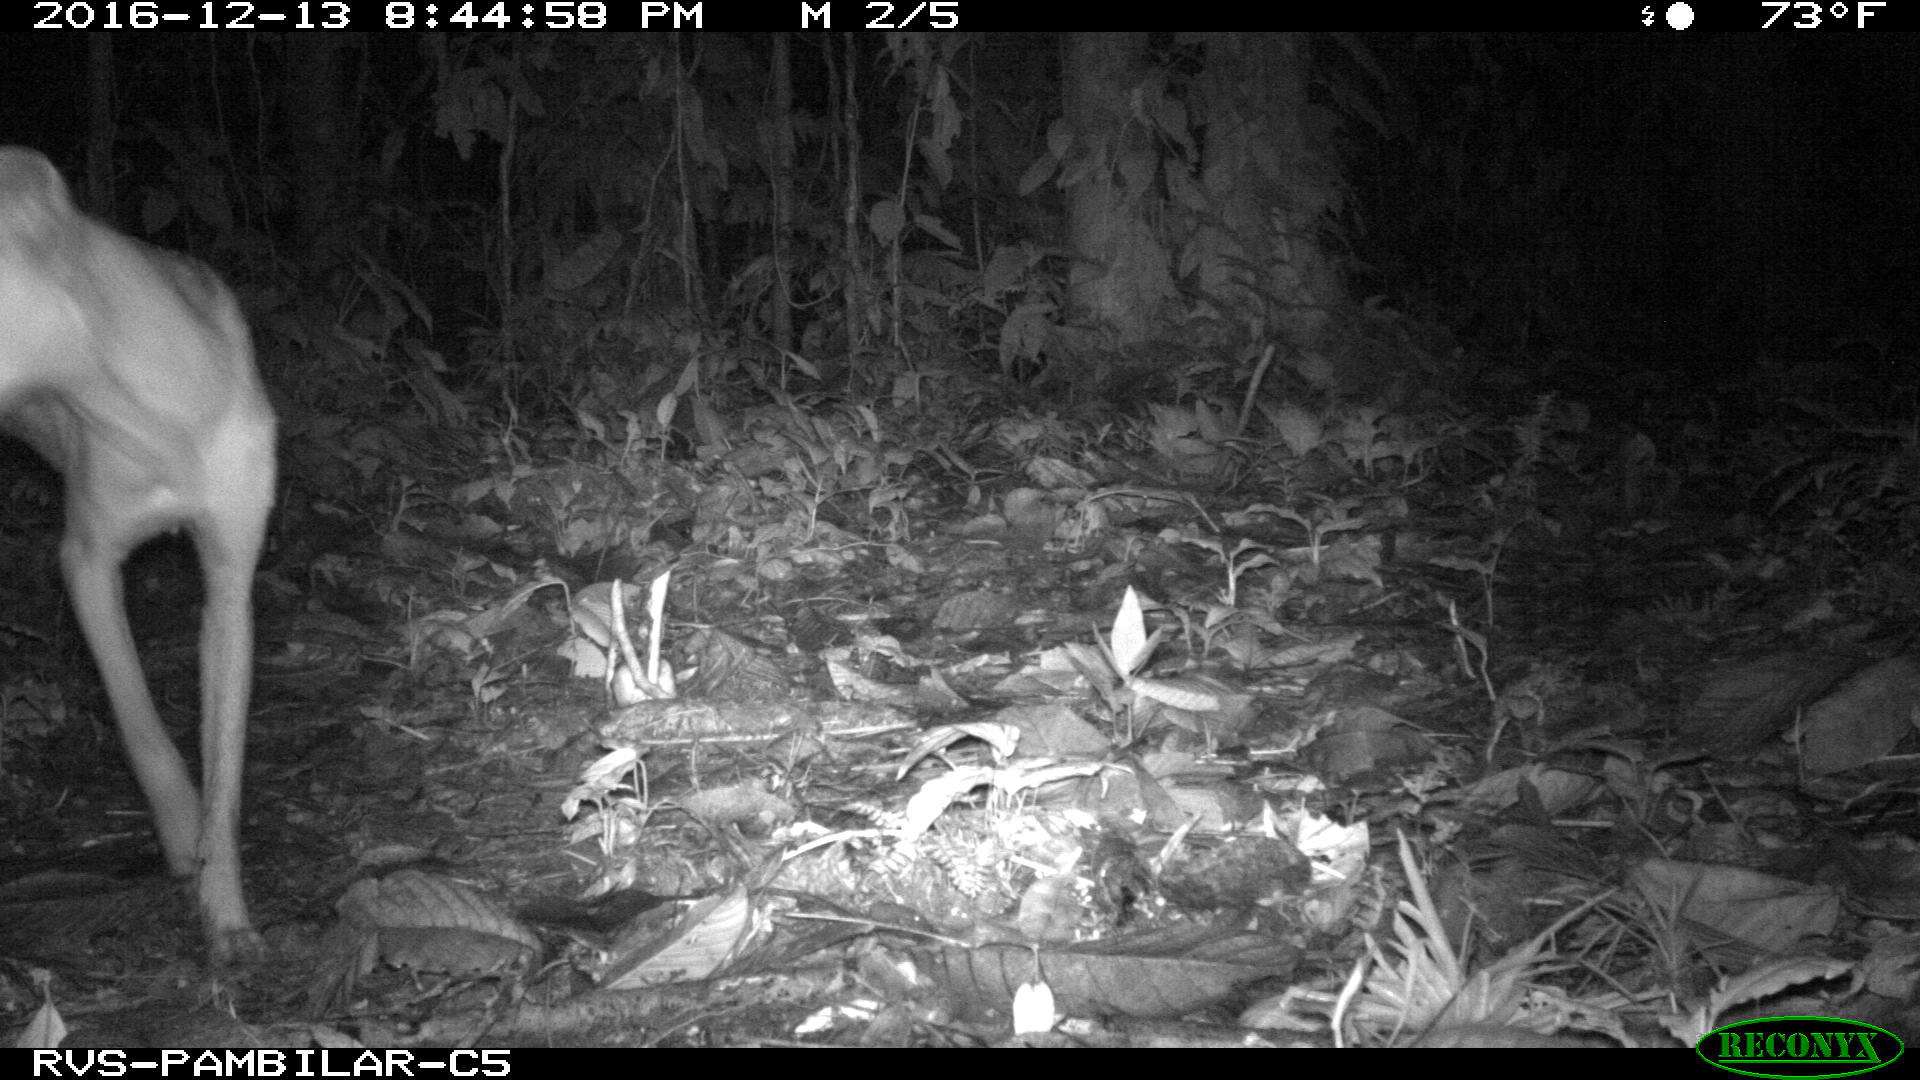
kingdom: Animalia
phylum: Chordata
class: Mammalia
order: Carnivora
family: Canidae
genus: Canis
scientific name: Canis lupus
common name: Gray wolf
